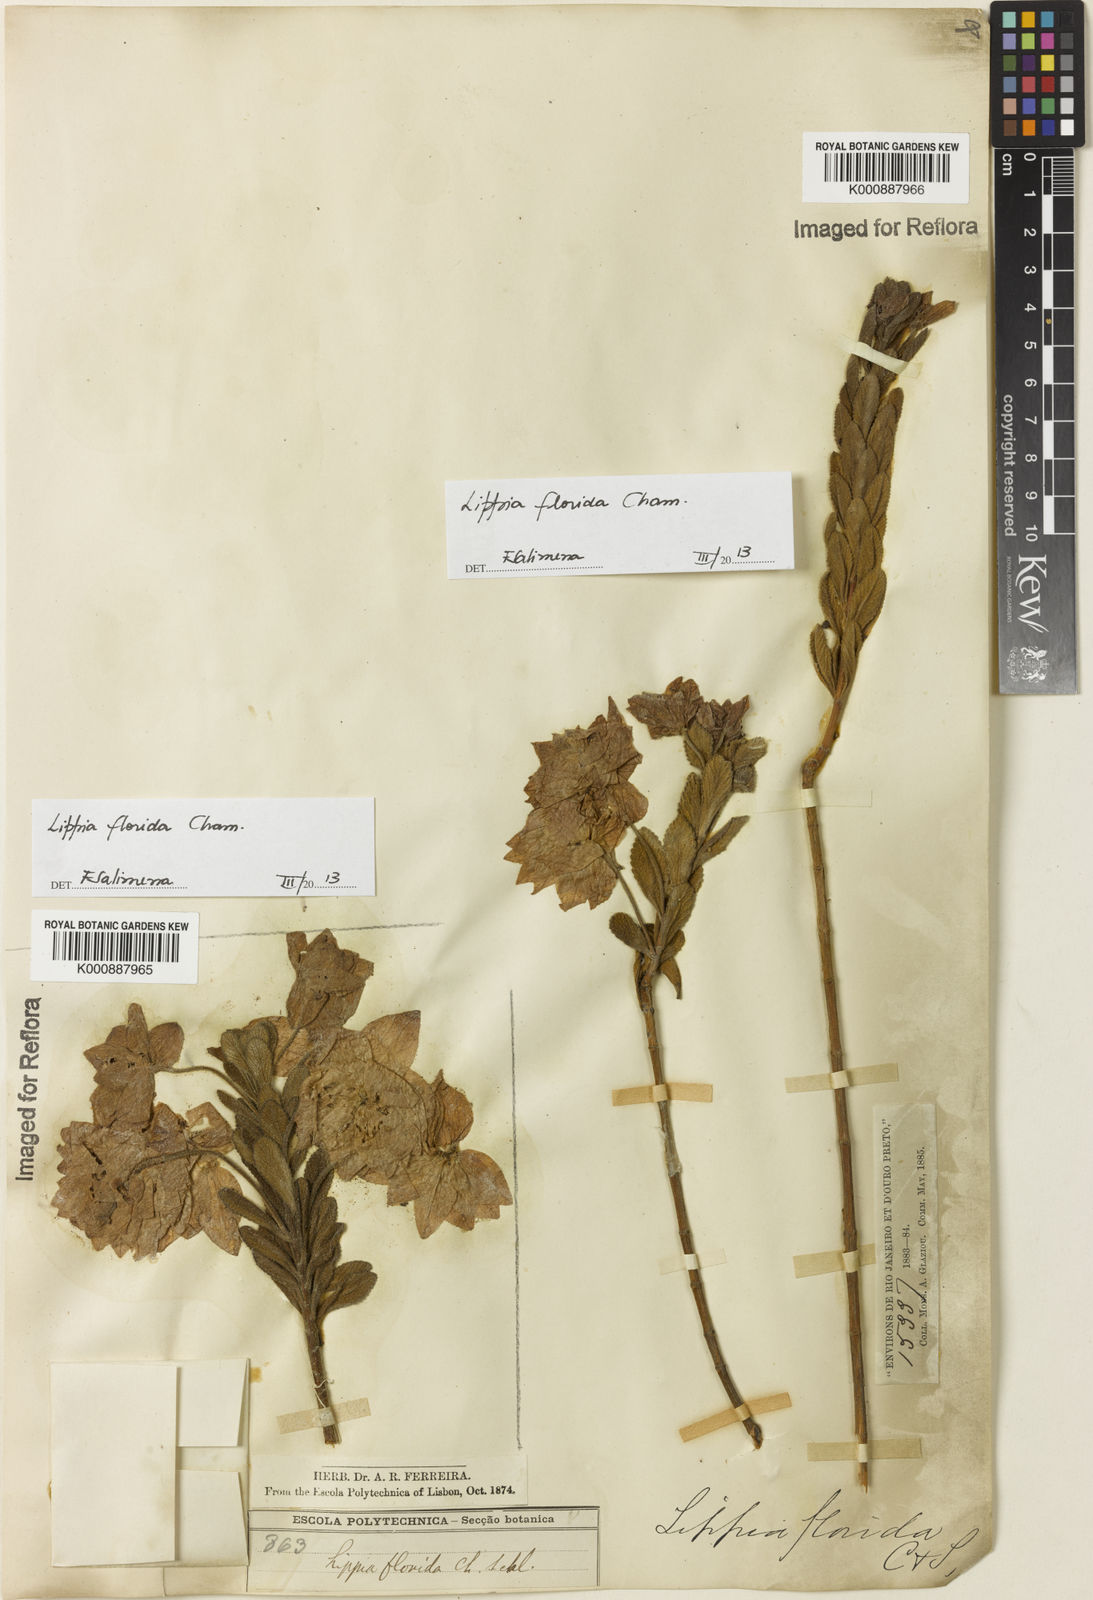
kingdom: Plantae
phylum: Tracheophyta
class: Magnoliopsida
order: Lamiales
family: Verbenaceae
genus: Lippia
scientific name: Lippia florida
